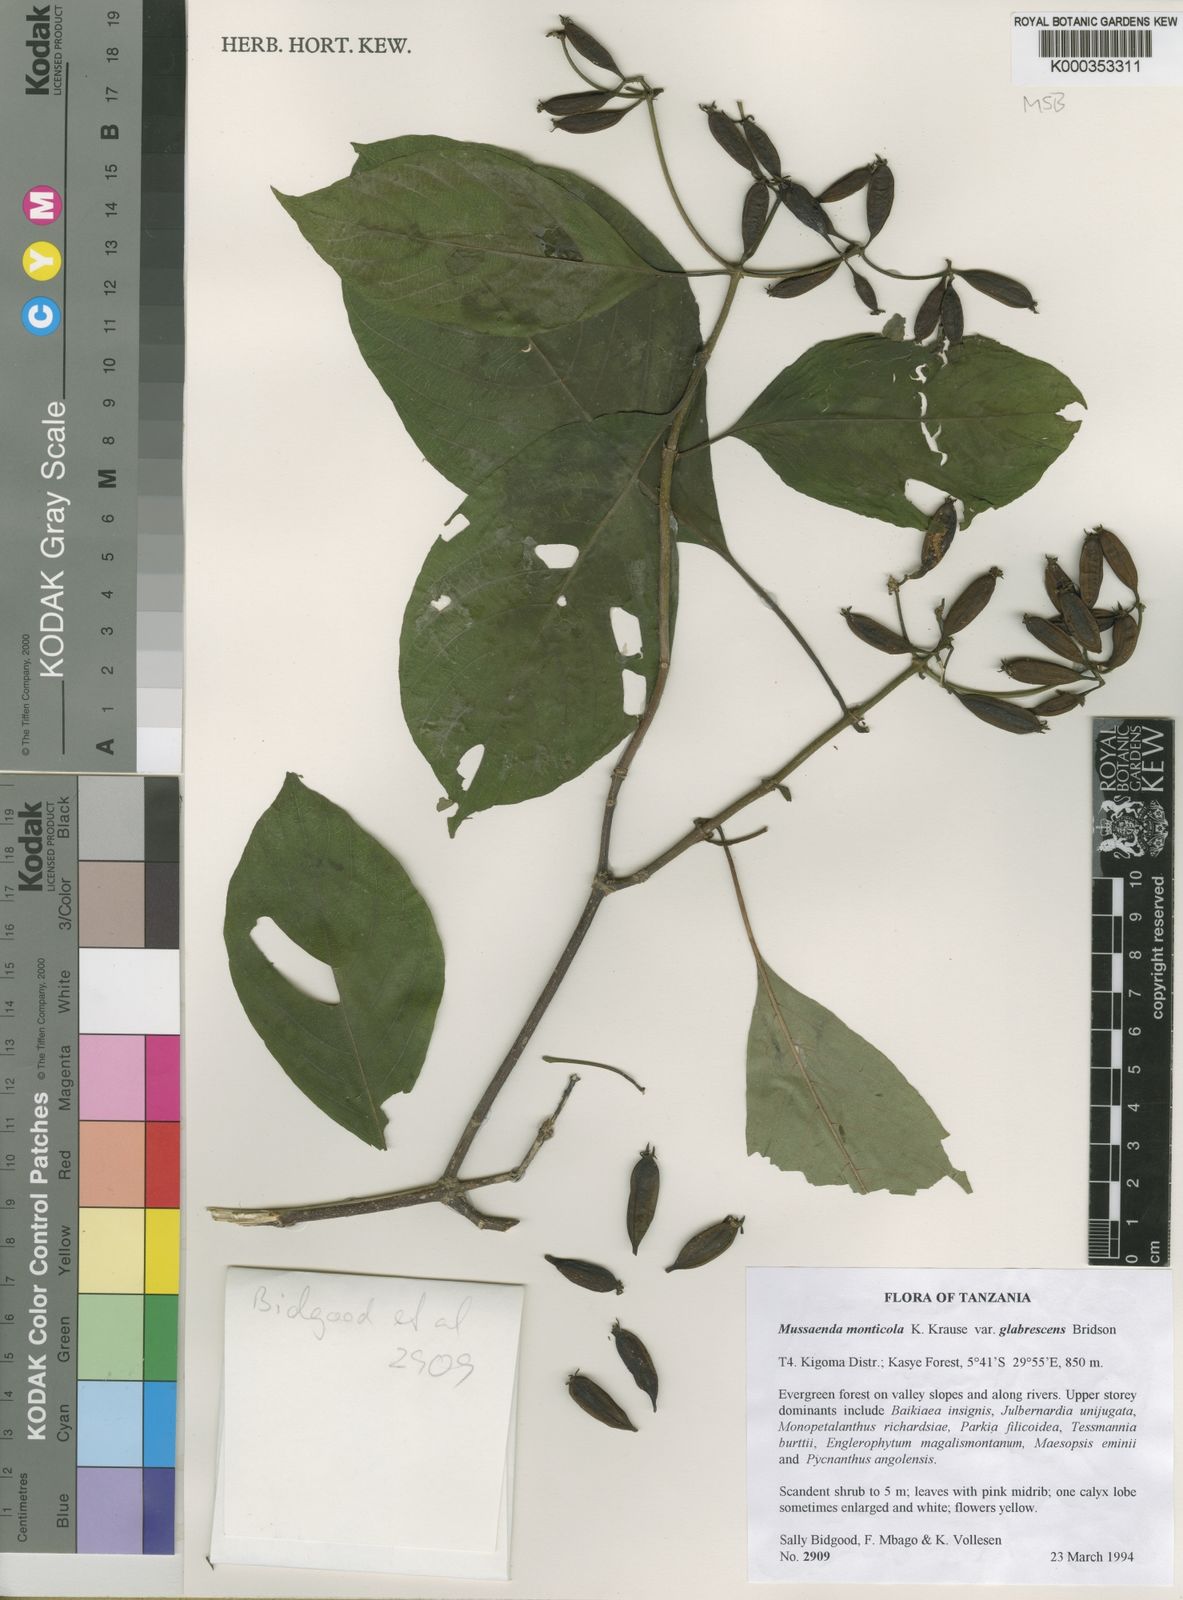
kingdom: Plantae
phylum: Tracheophyta
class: Magnoliopsida
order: Gentianales
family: Rubiaceae
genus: Mussaenda
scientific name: Mussaenda monticola
